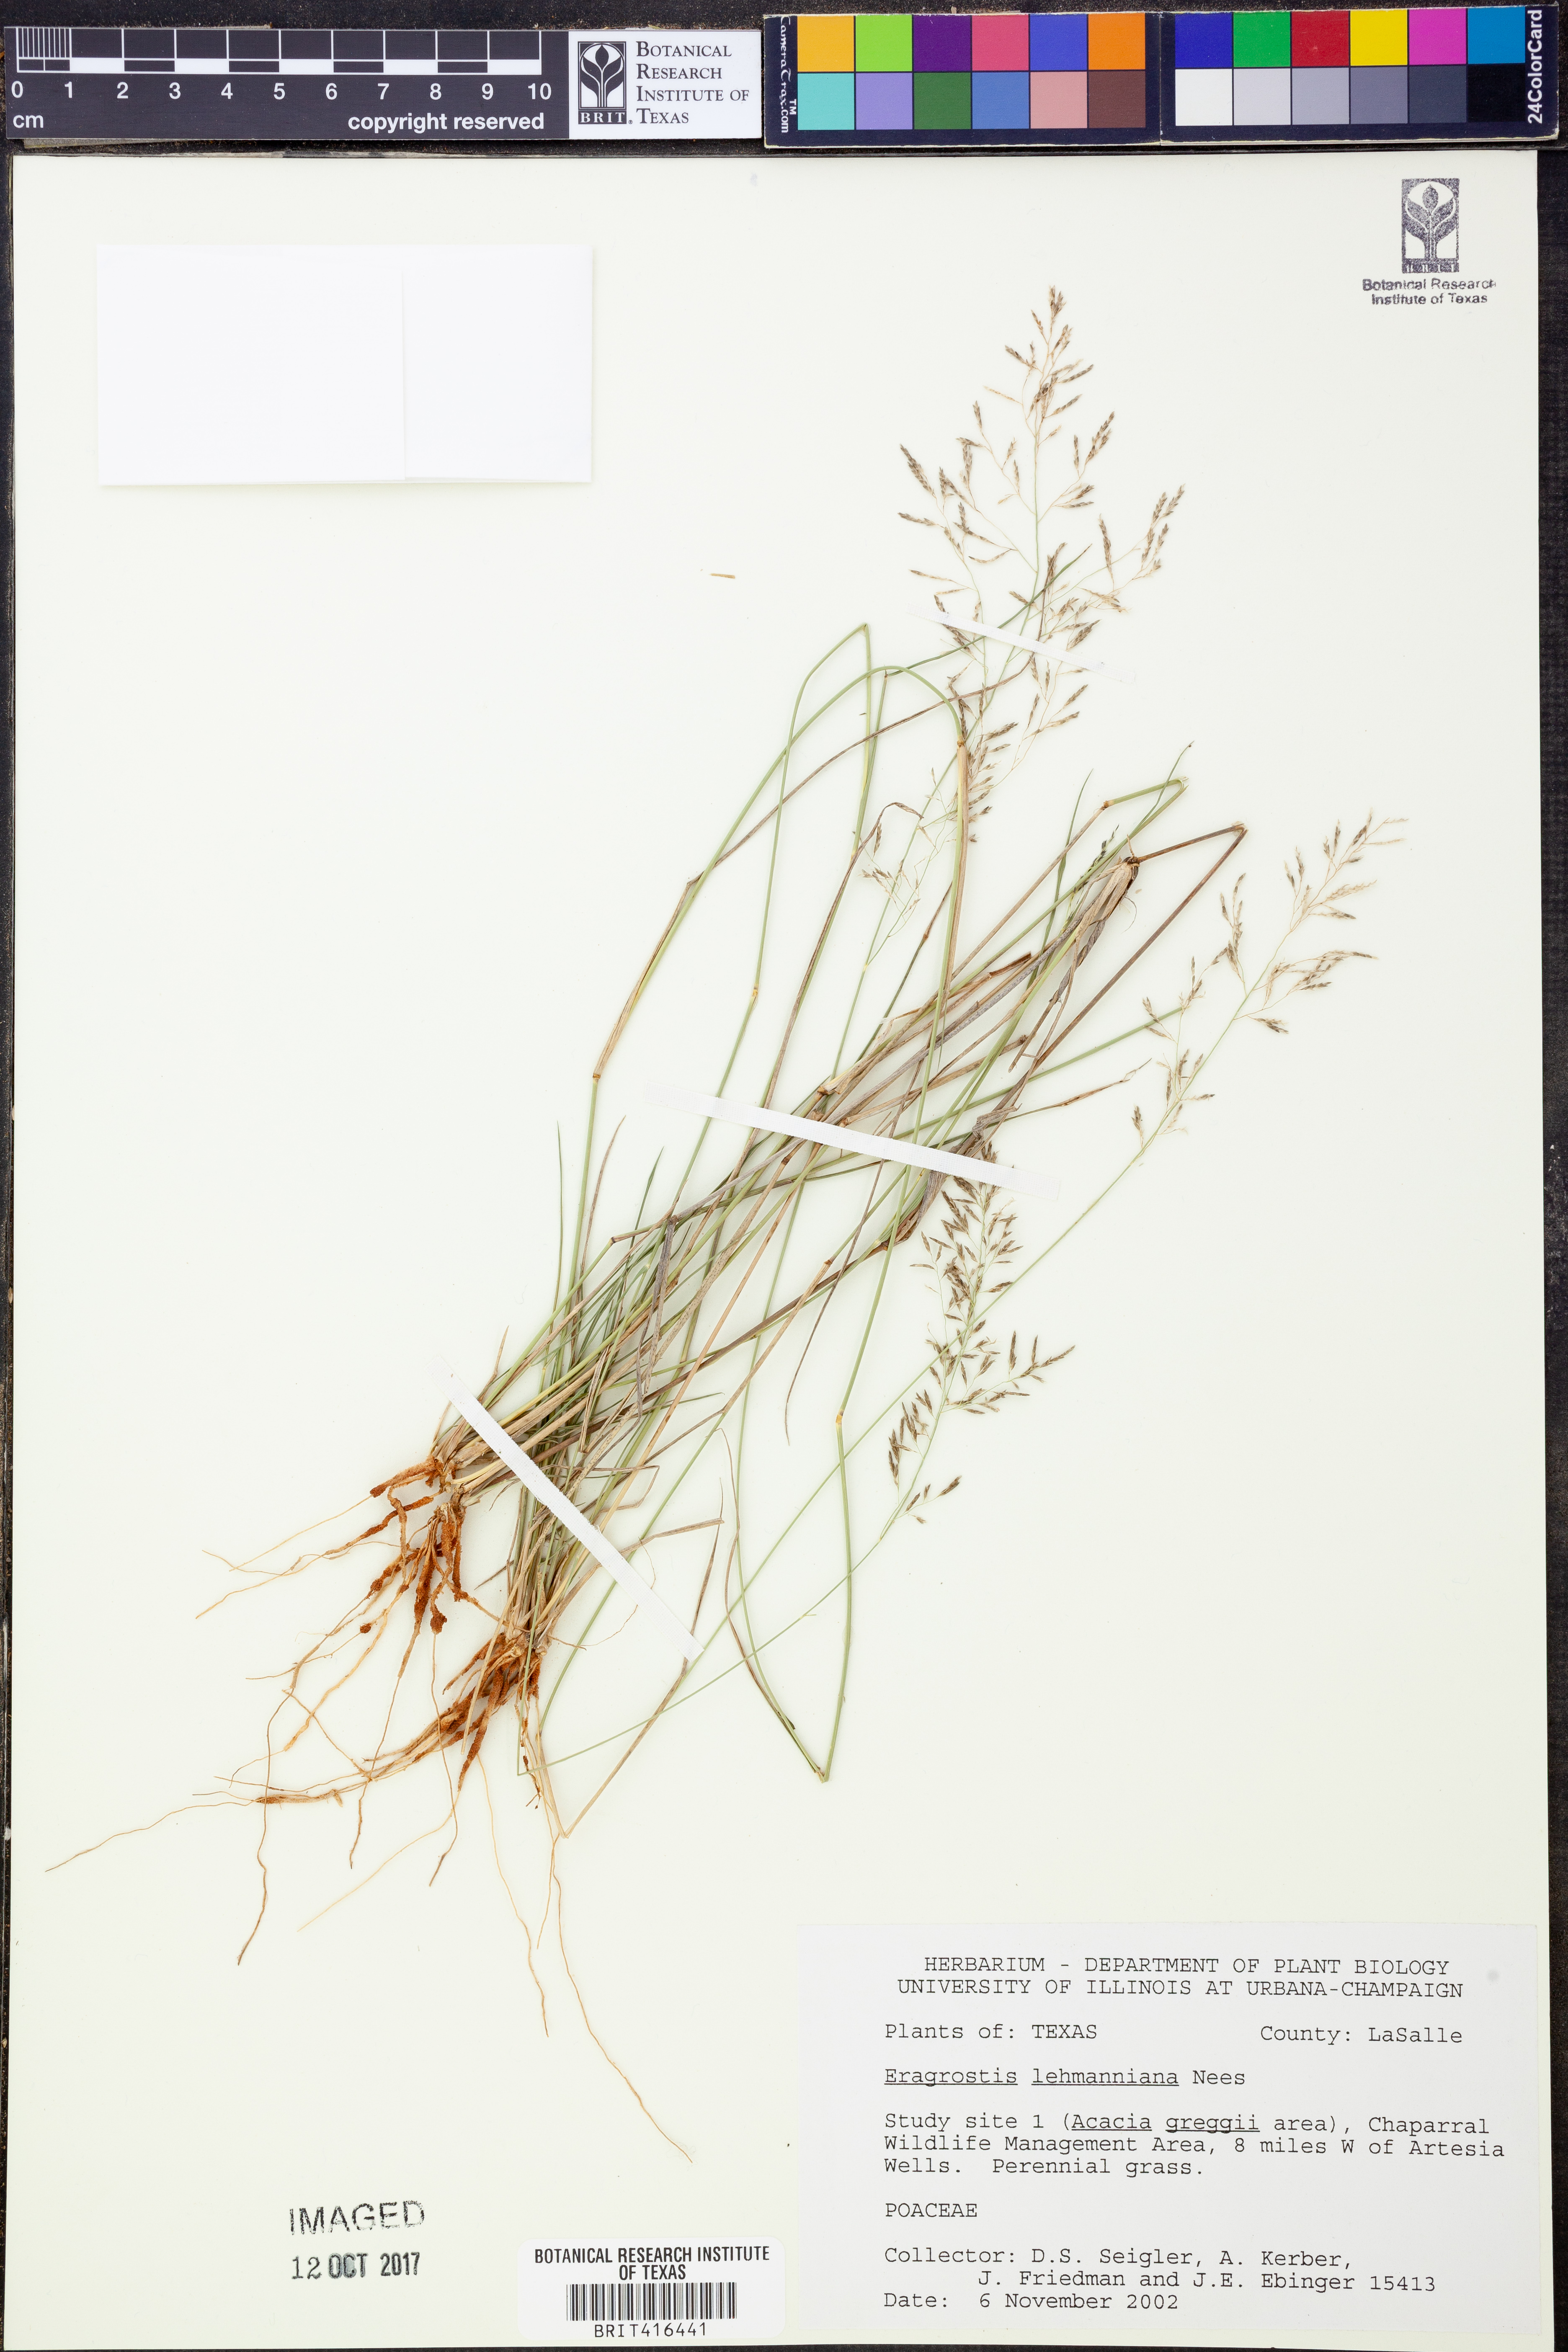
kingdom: Plantae
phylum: Tracheophyta
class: Liliopsida
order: Poales
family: Poaceae
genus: Eragrostis
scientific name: Eragrostis lehmanniana
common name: Lehmann lovegrass
